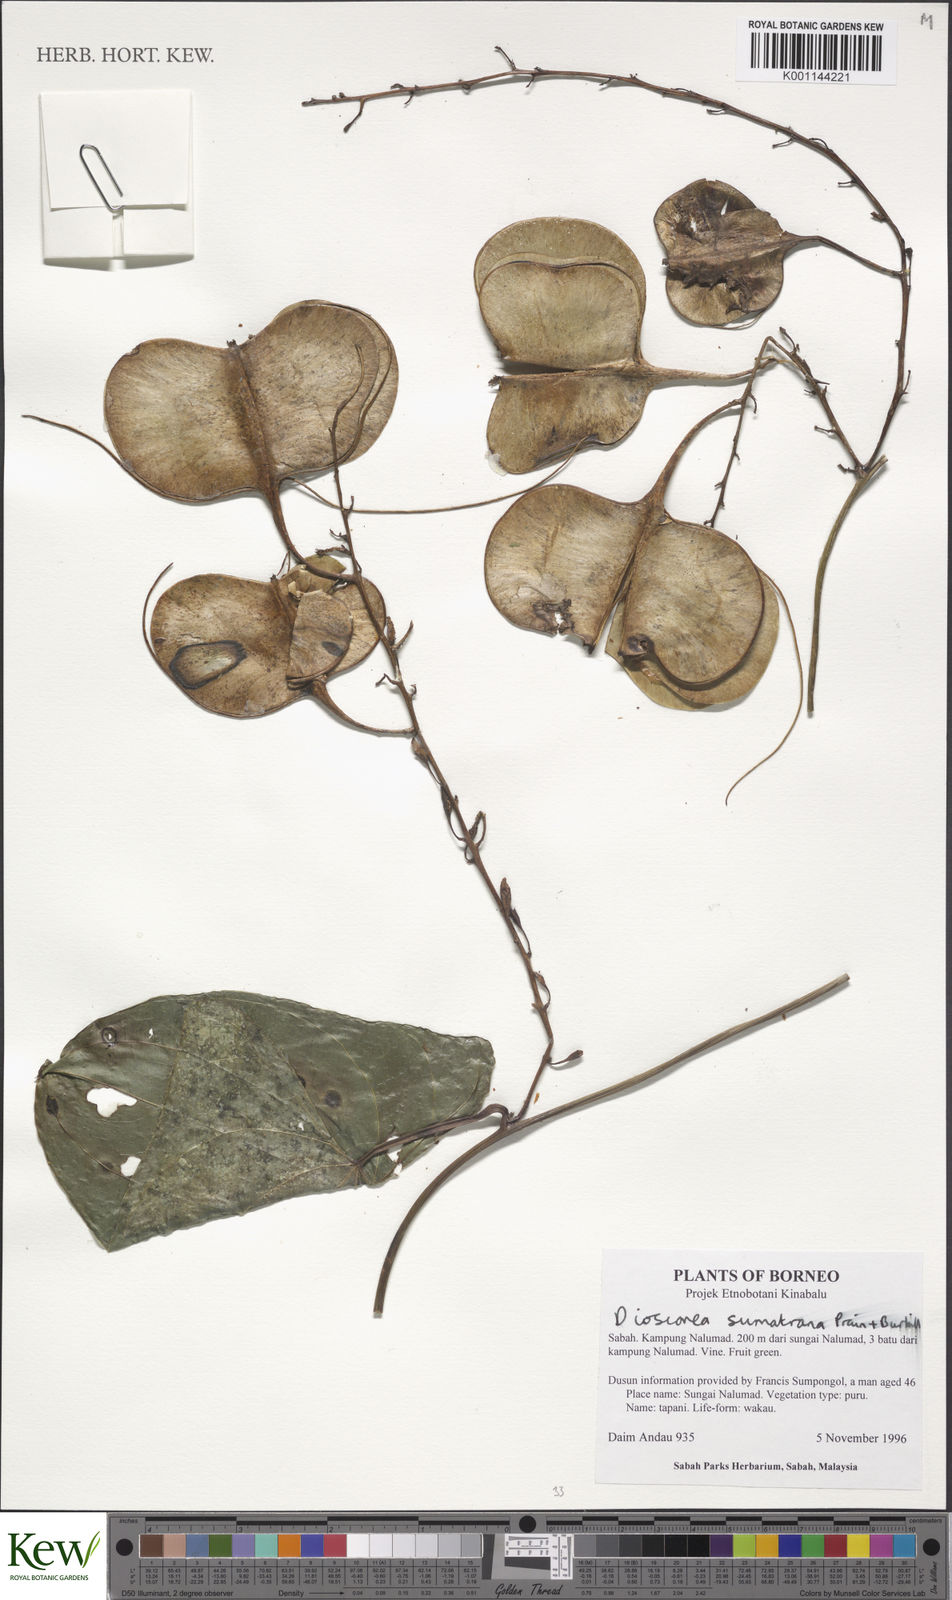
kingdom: Plantae
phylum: Tracheophyta
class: Liliopsida
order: Dioscoreales
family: Dioscoreaceae
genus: Dioscorea
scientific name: Dioscorea sumatrana
